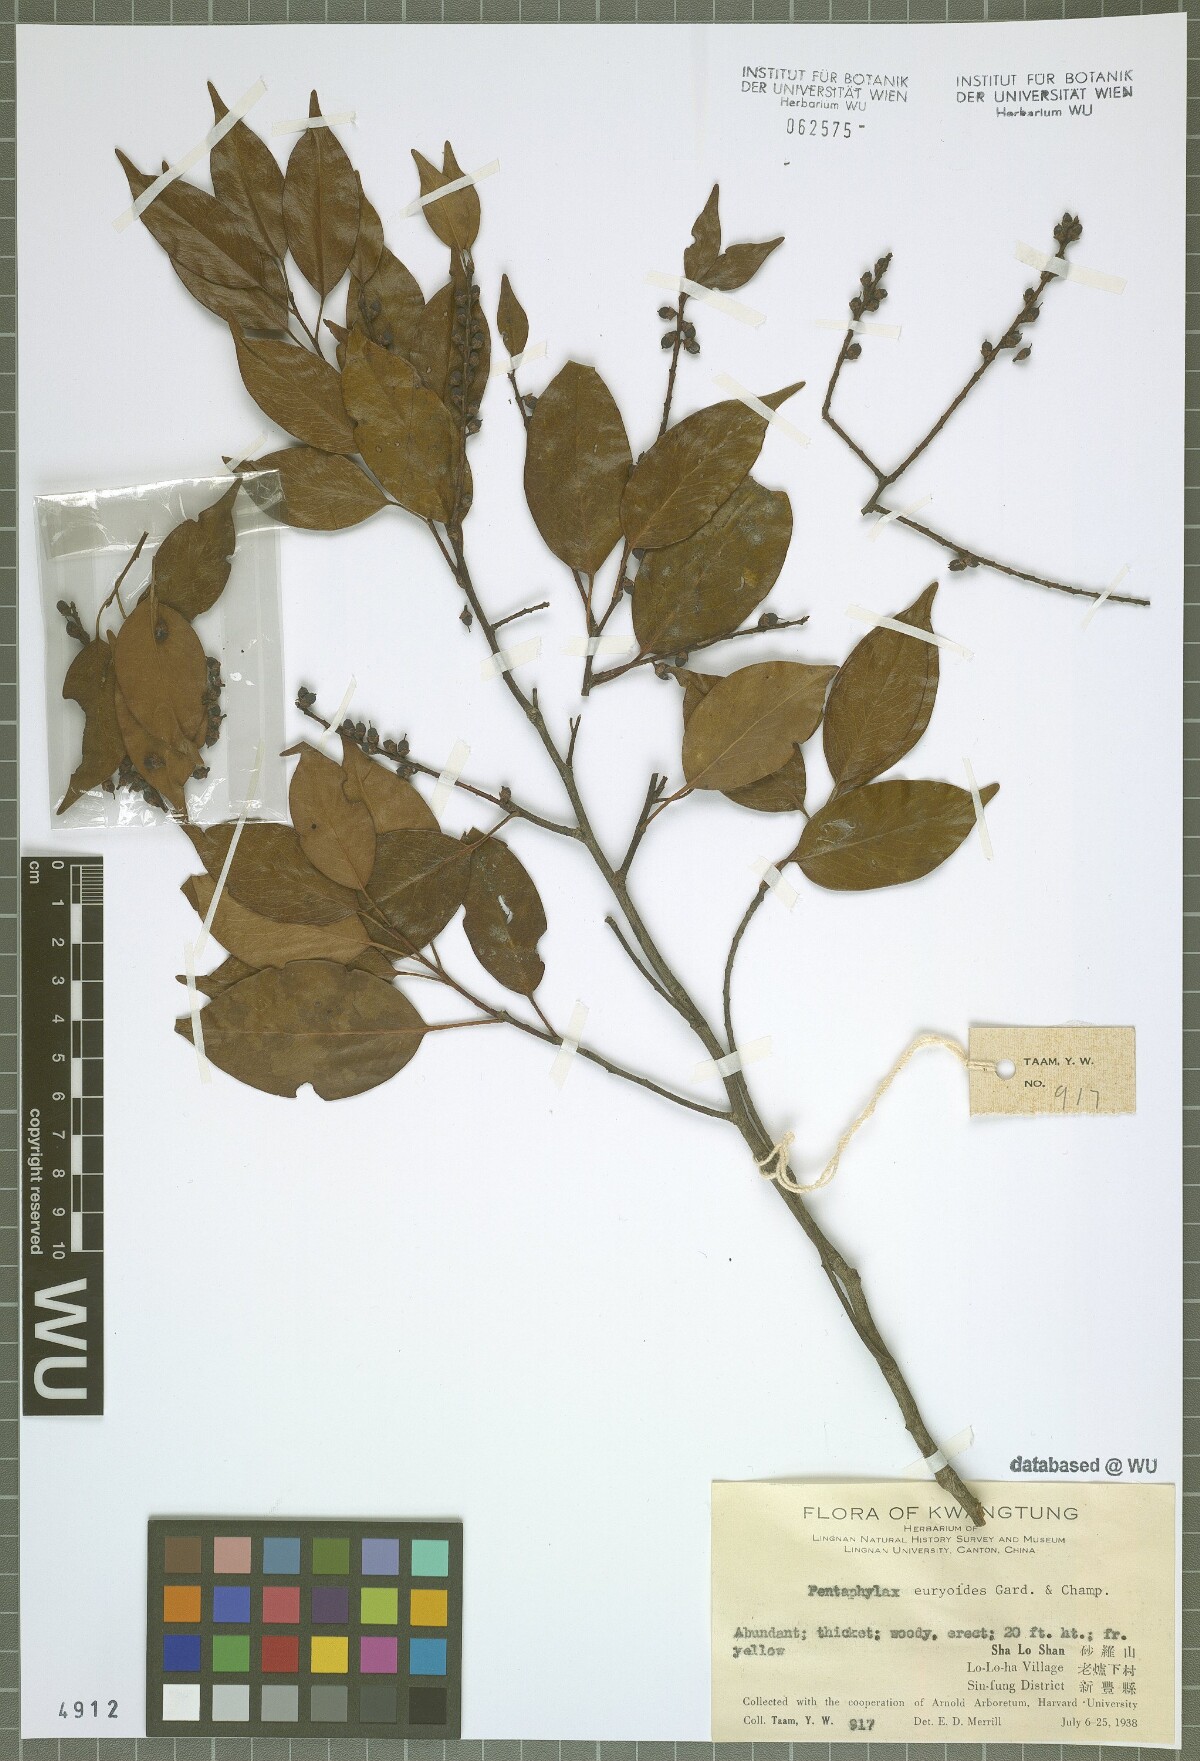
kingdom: Plantae
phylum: Tracheophyta
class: Magnoliopsida
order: Ericales
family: Pentaphylacaceae
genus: Pentaphylax
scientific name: Pentaphylax euryoides
